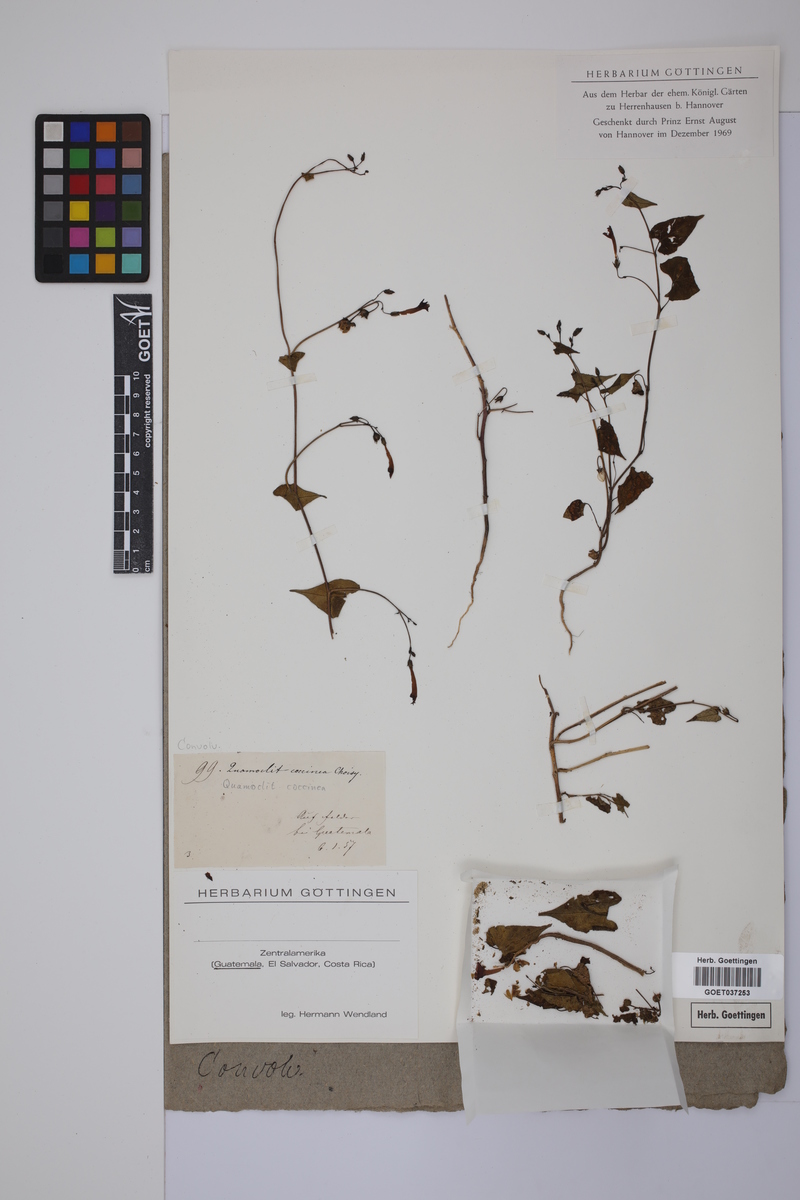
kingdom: Plantae
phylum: Tracheophyta
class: Magnoliopsida
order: Solanales
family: Convolvulaceae
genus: Ipomoea
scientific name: Ipomoea coccinea
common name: Red morning-glory
